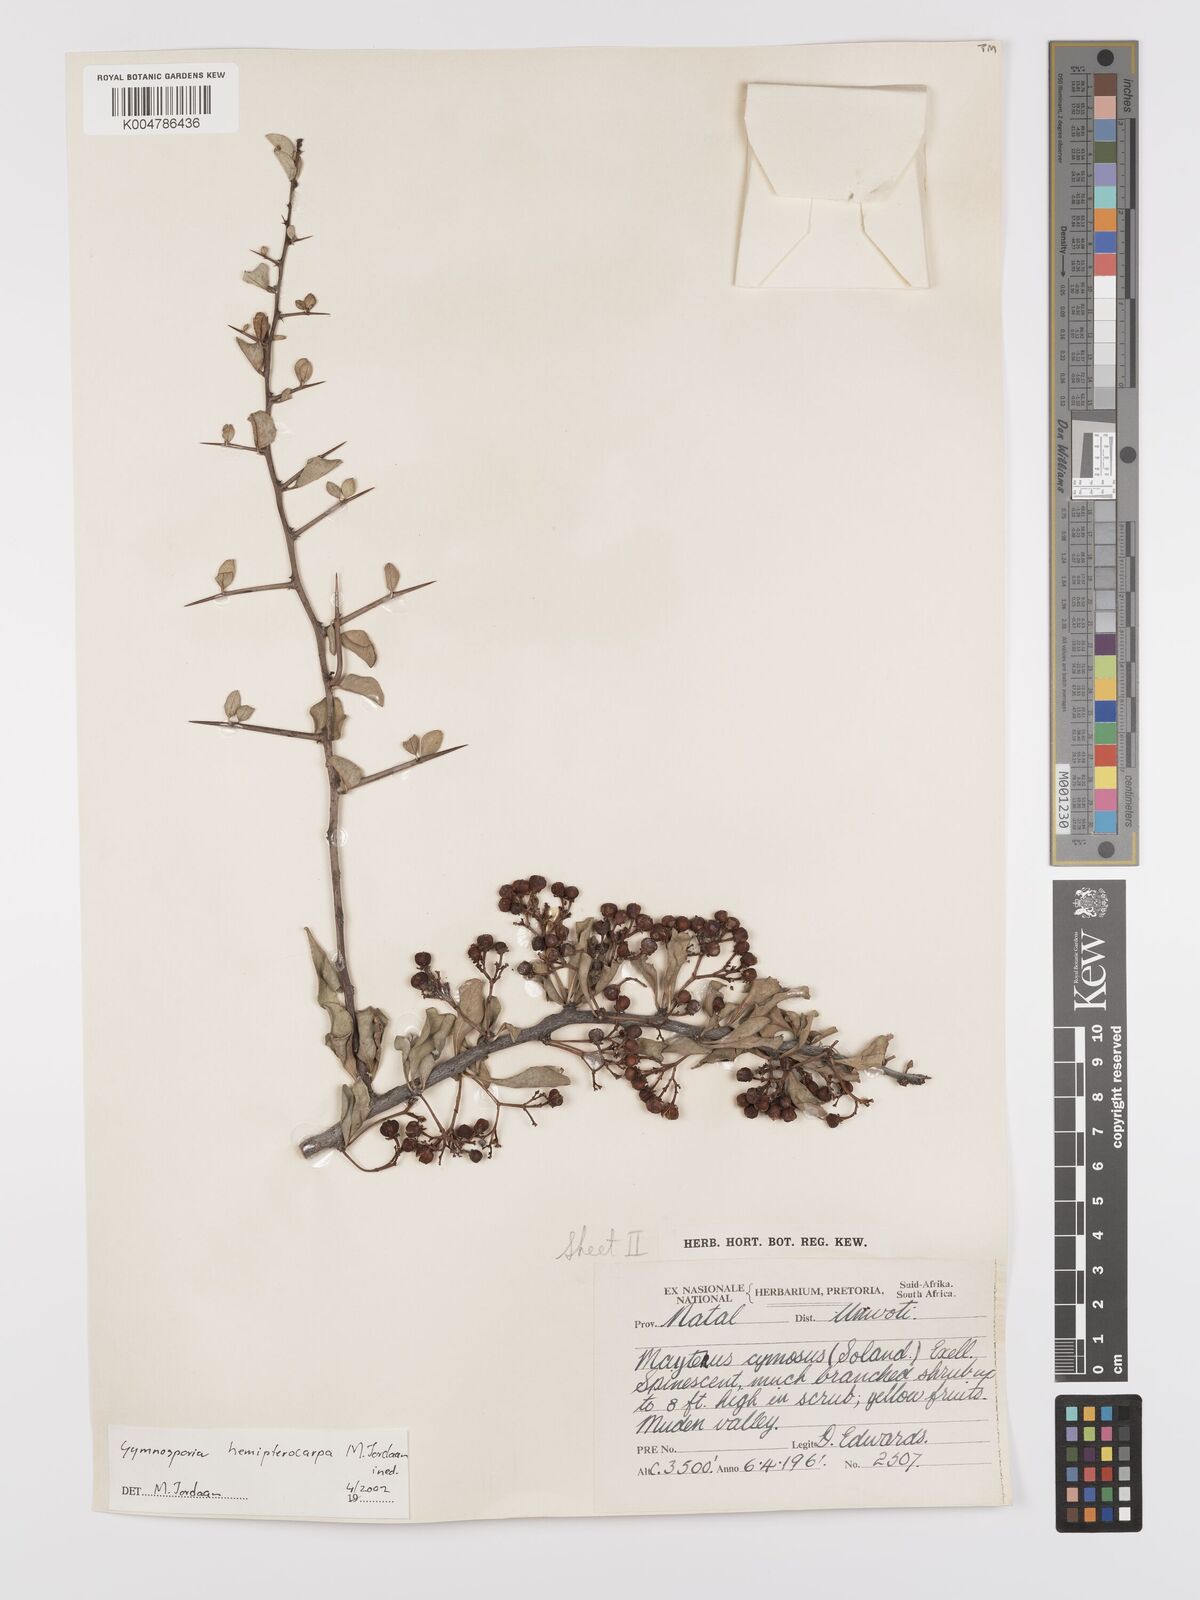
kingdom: Plantae
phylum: Tracheophyta
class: Magnoliopsida
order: Celastrales
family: Celastraceae
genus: Gymnosporia
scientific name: Gymnosporia hemipterocarpa
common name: Valley spikethorn
